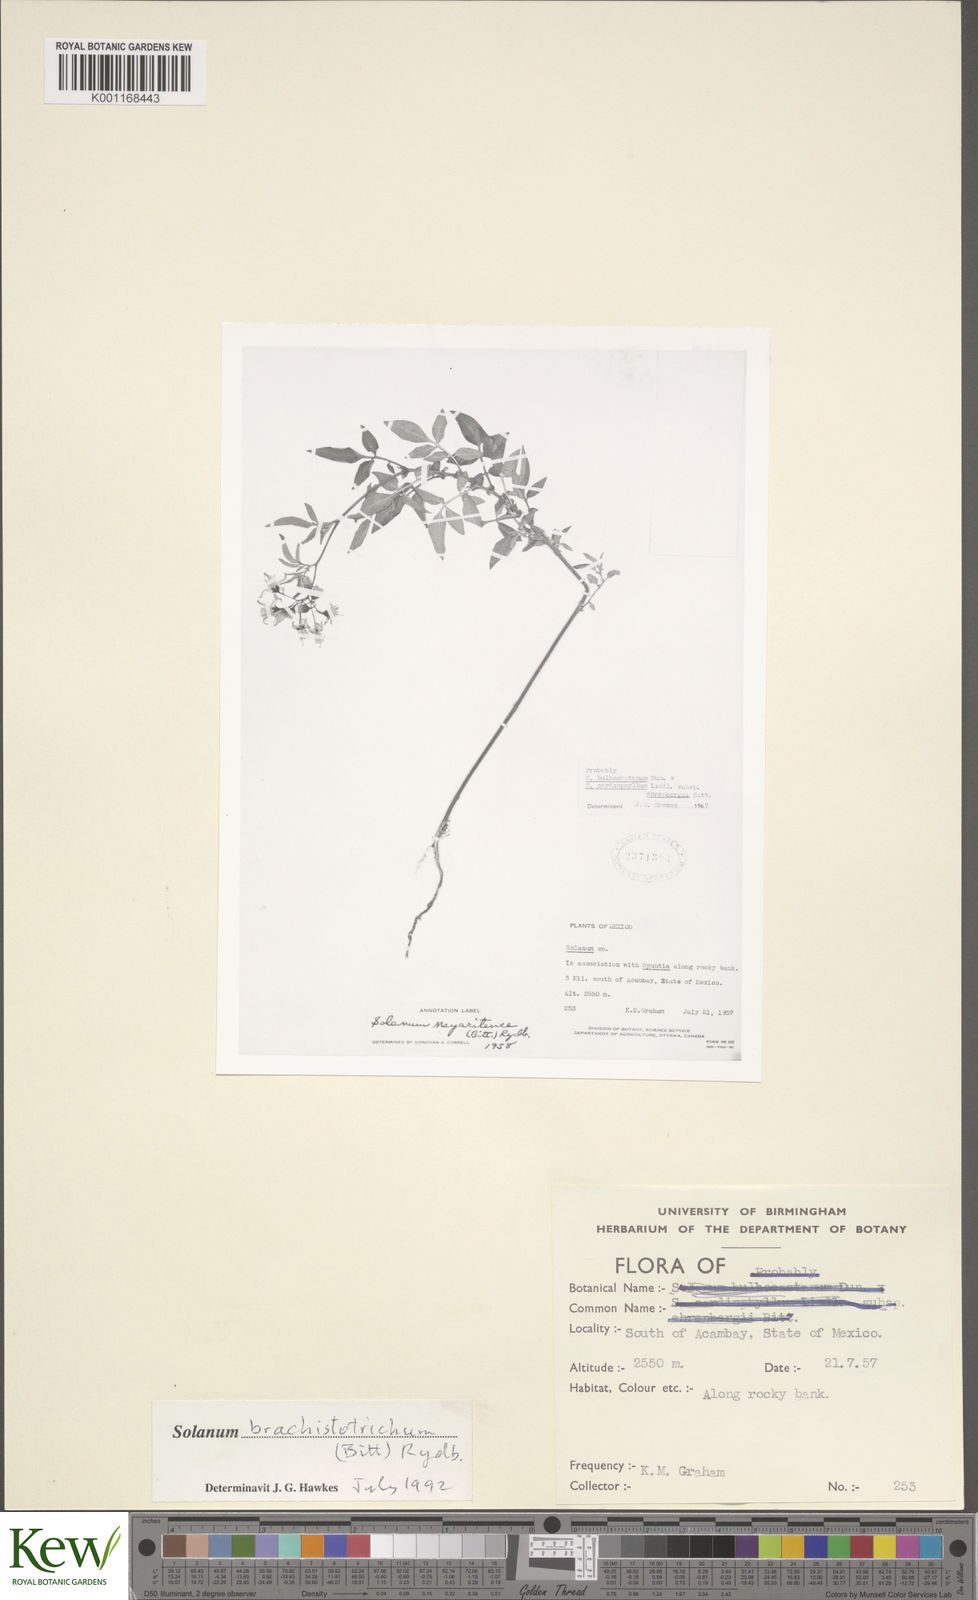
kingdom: Plantae
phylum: Tracheophyta
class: Magnoliopsida
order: Solanales
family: Solanaceae
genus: Solanum
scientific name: Solanum
